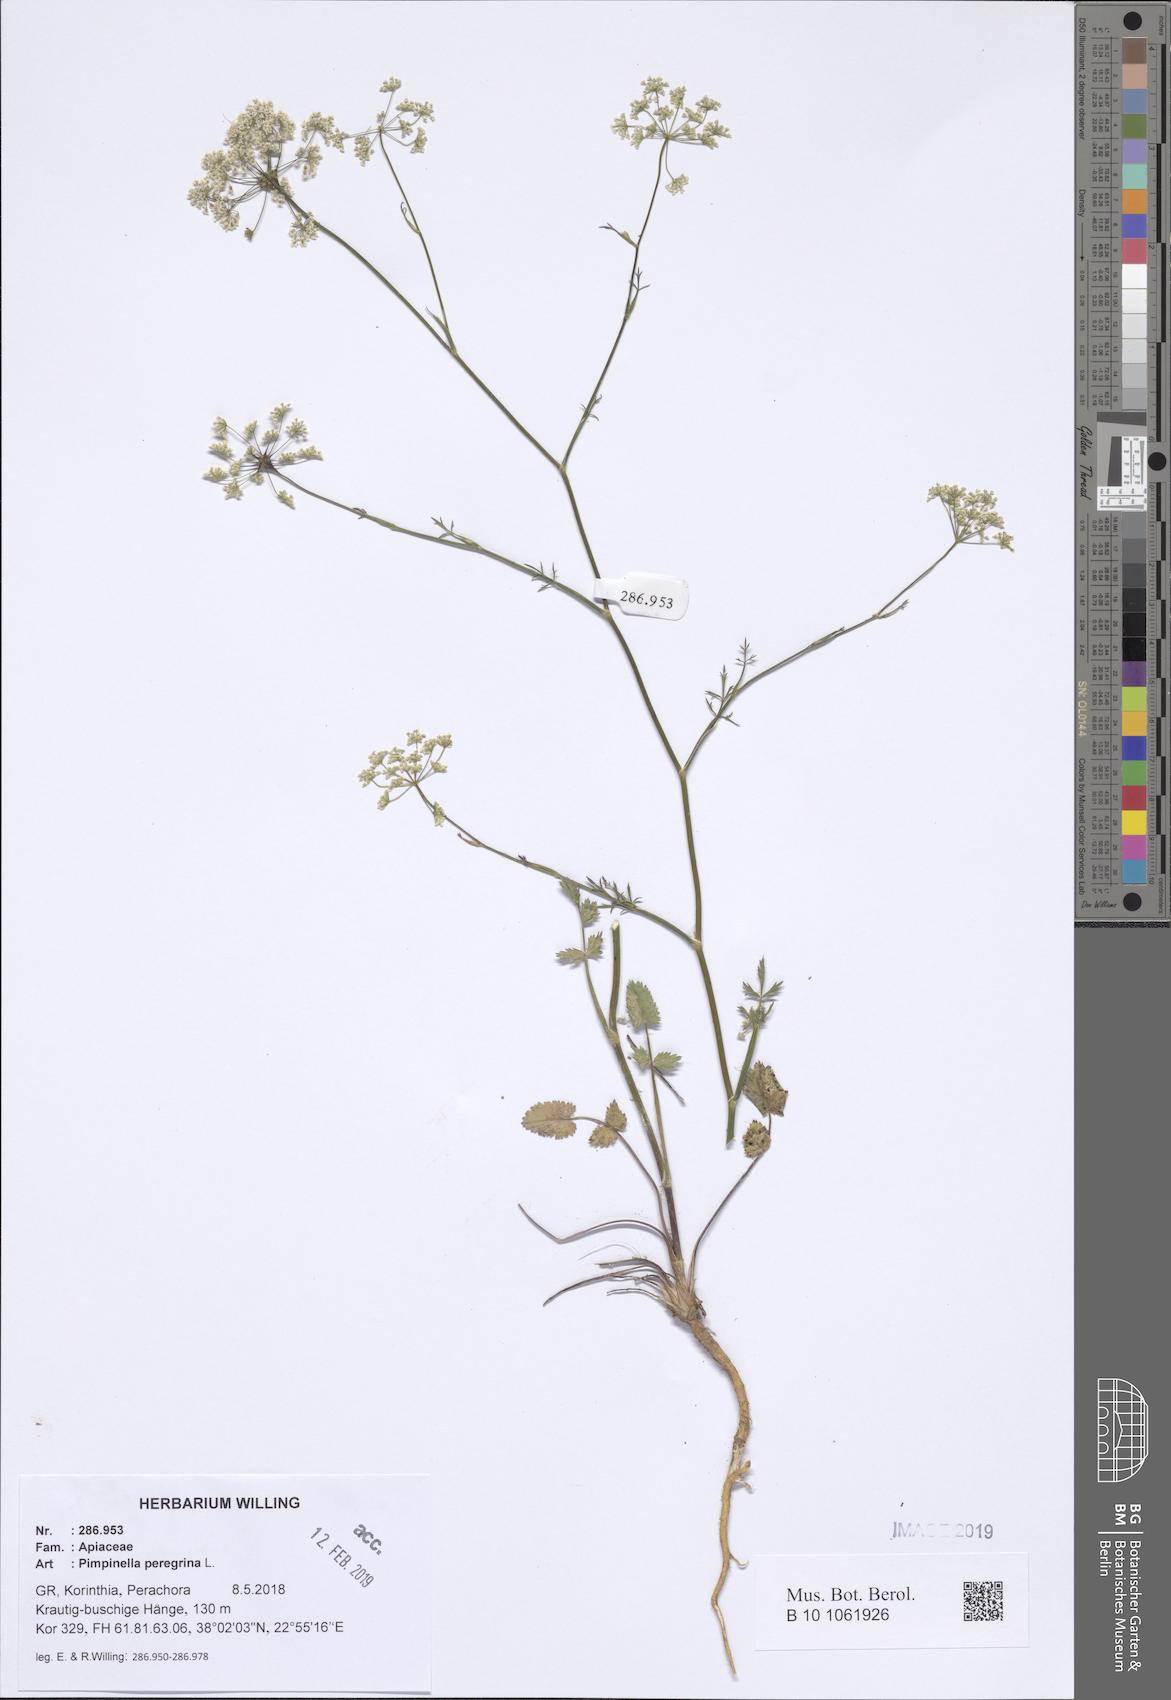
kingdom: Plantae
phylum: Tracheophyta
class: Magnoliopsida
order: Apiales
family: Apiaceae
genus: Pimpinella
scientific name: Pimpinella peregrina
